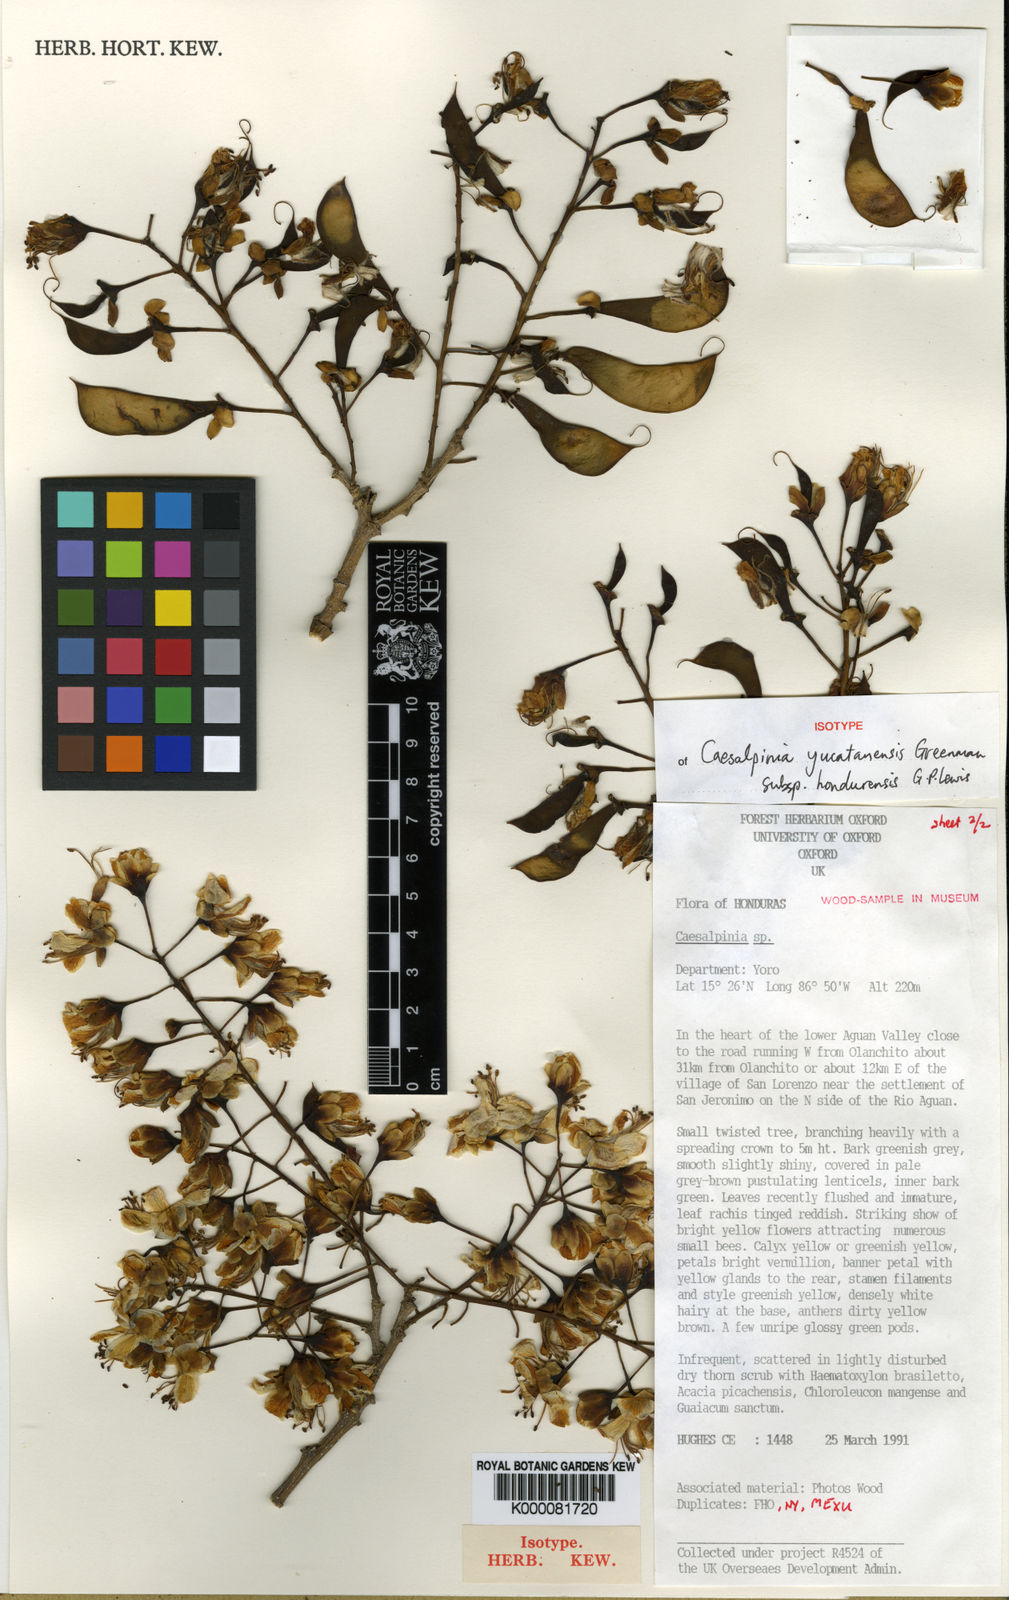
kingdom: Plantae
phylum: Tracheophyta
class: Magnoliopsida
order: Fabales
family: Fabaceae
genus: Erythrostemon
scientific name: Erythrostemon yucatanensis
